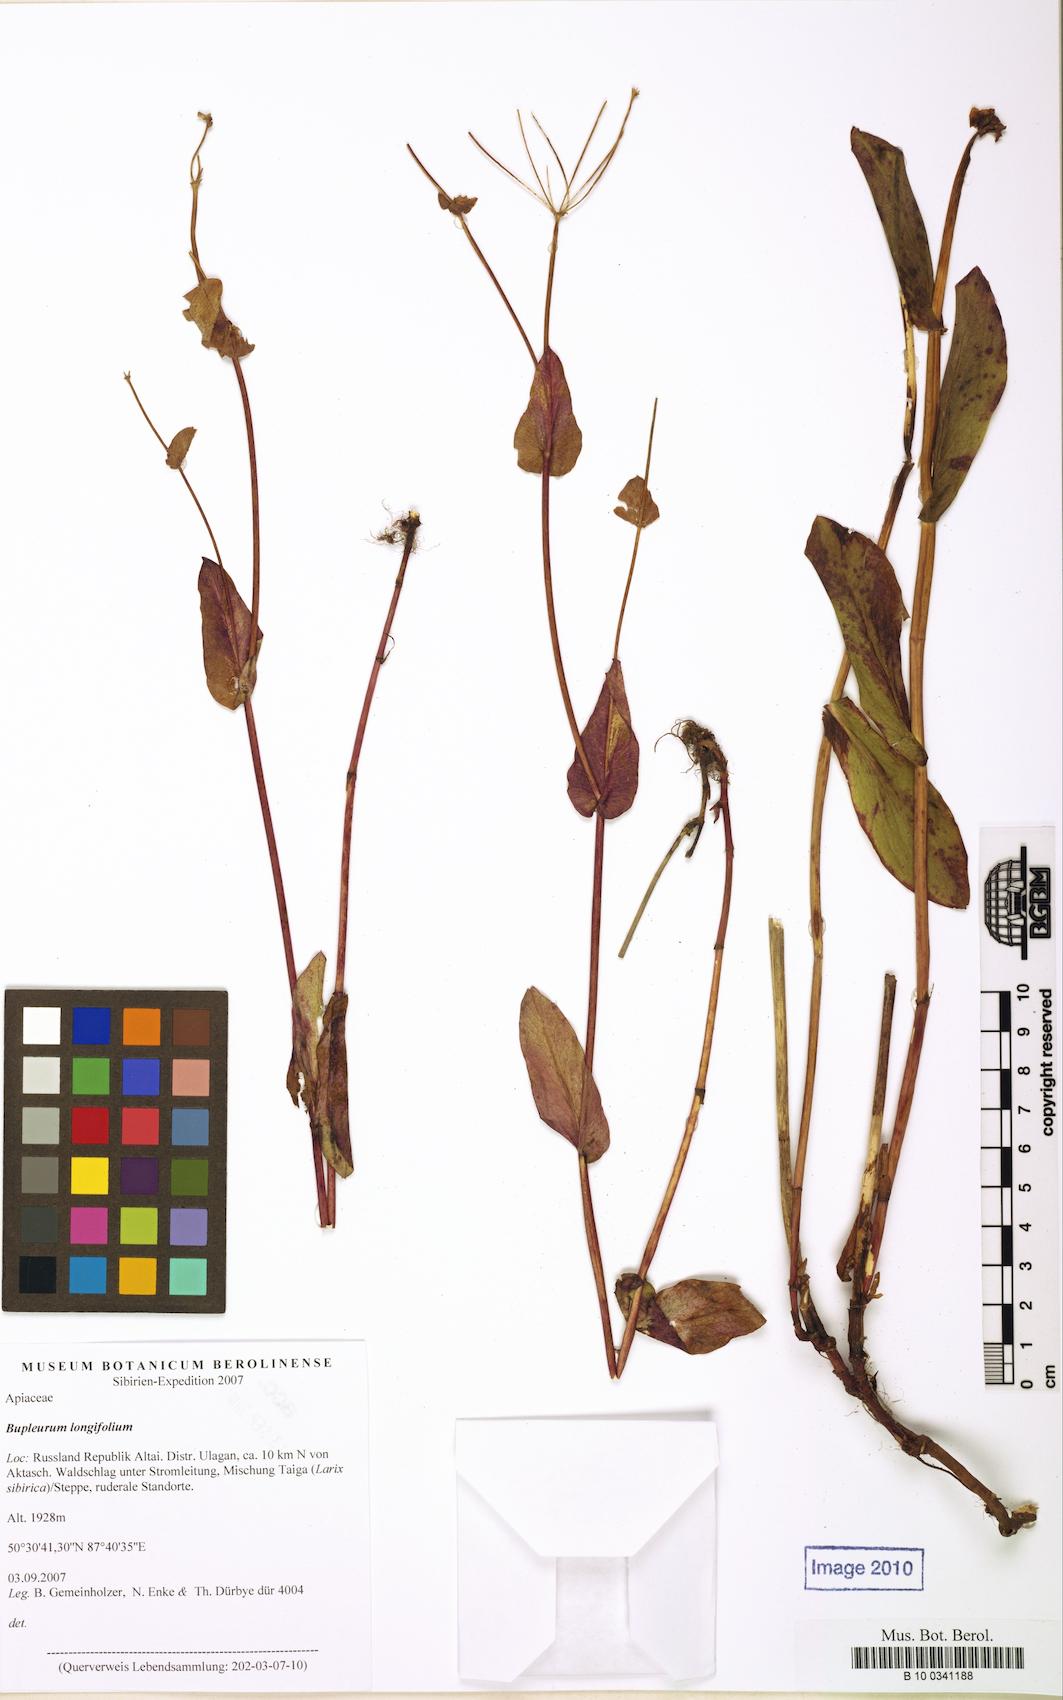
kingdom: Plantae
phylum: Tracheophyta
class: Magnoliopsida
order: Apiales
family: Apiaceae
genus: Bupleurum
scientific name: Bupleurum longifolium
